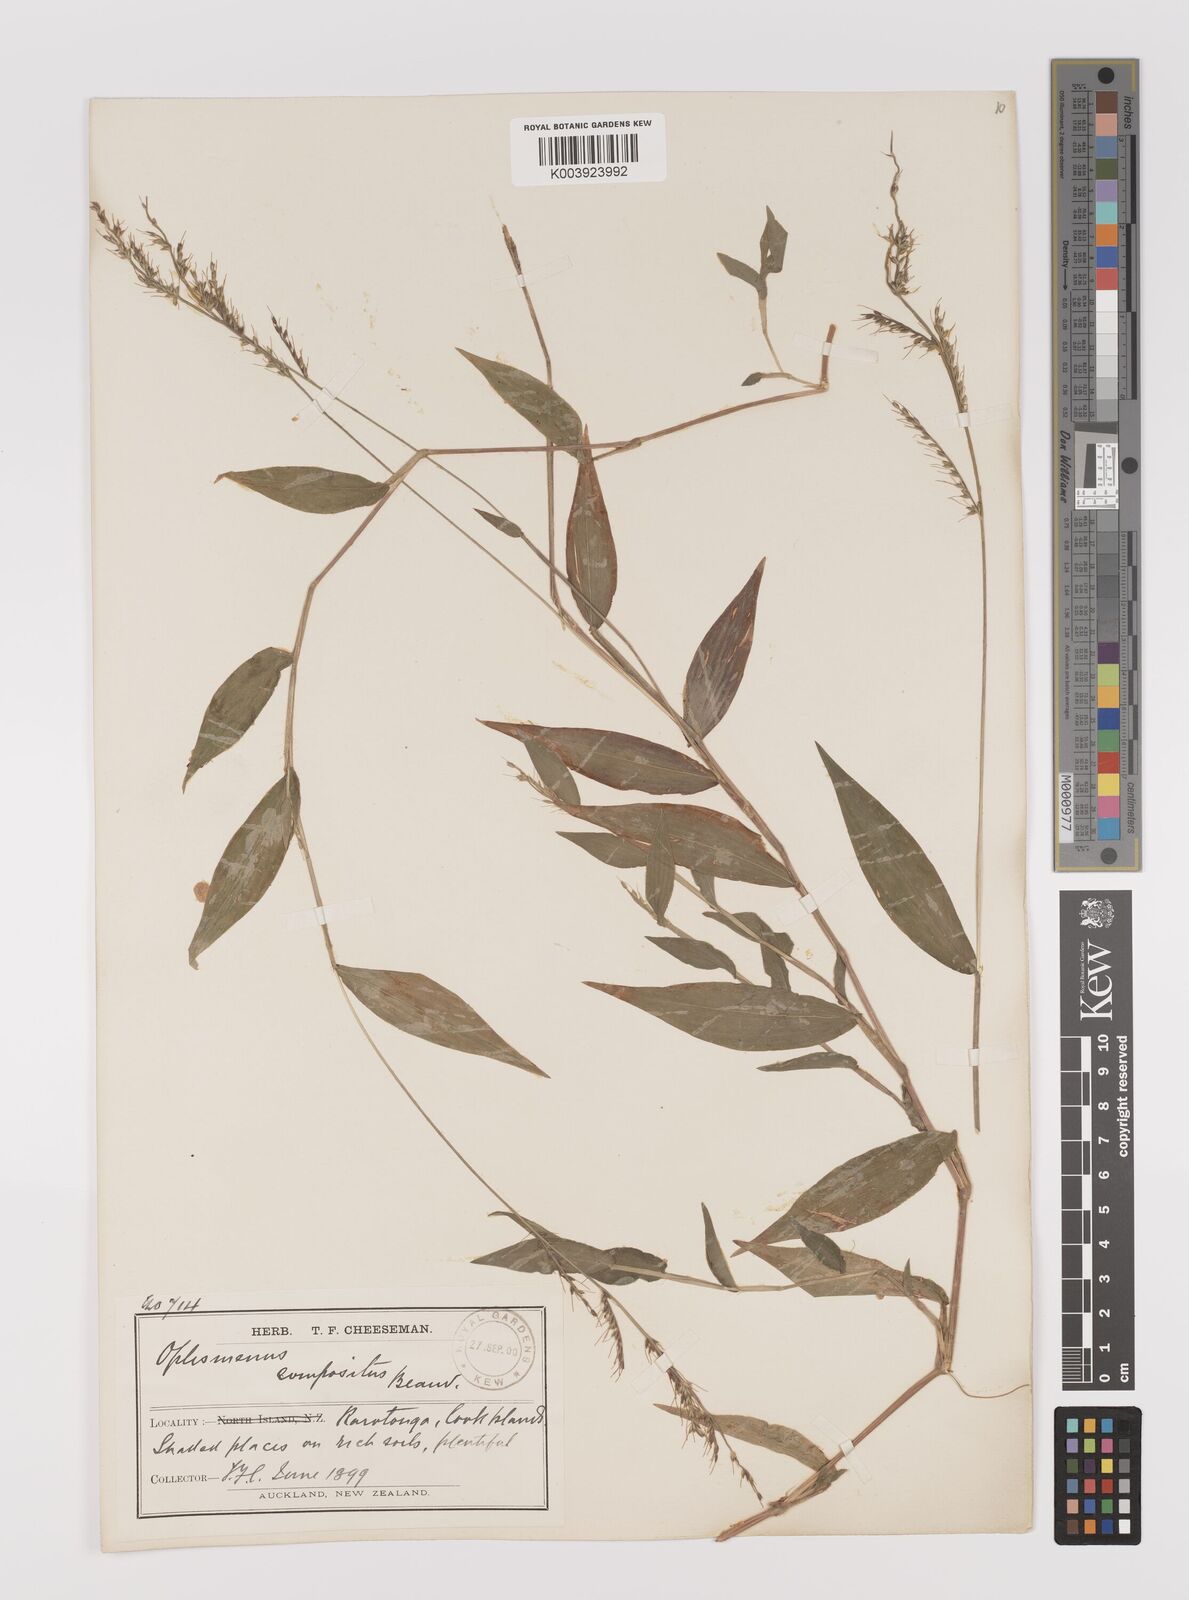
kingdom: Plantae
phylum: Tracheophyta
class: Liliopsida
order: Poales
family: Poaceae
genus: Oplismenus
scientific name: Oplismenus compositus
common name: Running mountain grass
